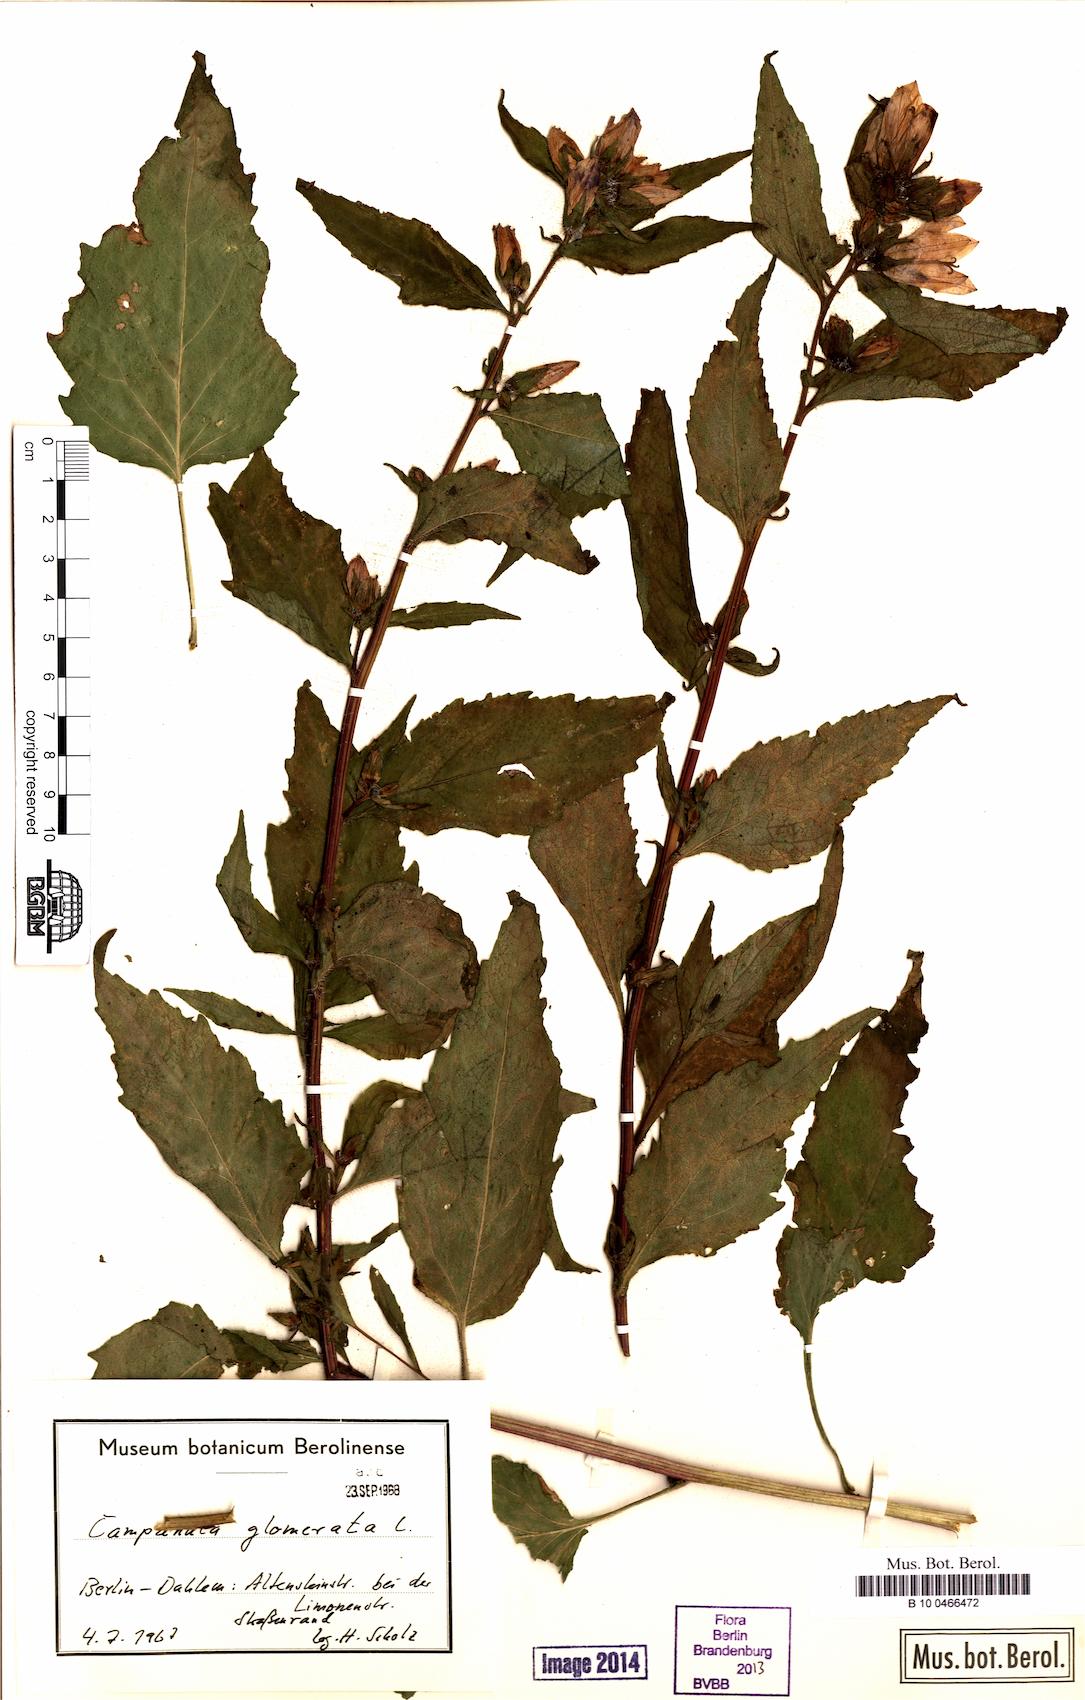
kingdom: Plantae
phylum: Tracheophyta
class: Magnoliopsida
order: Asterales
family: Campanulaceae
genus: Campanula
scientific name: Campanula glomerata
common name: Clustered bellflower
